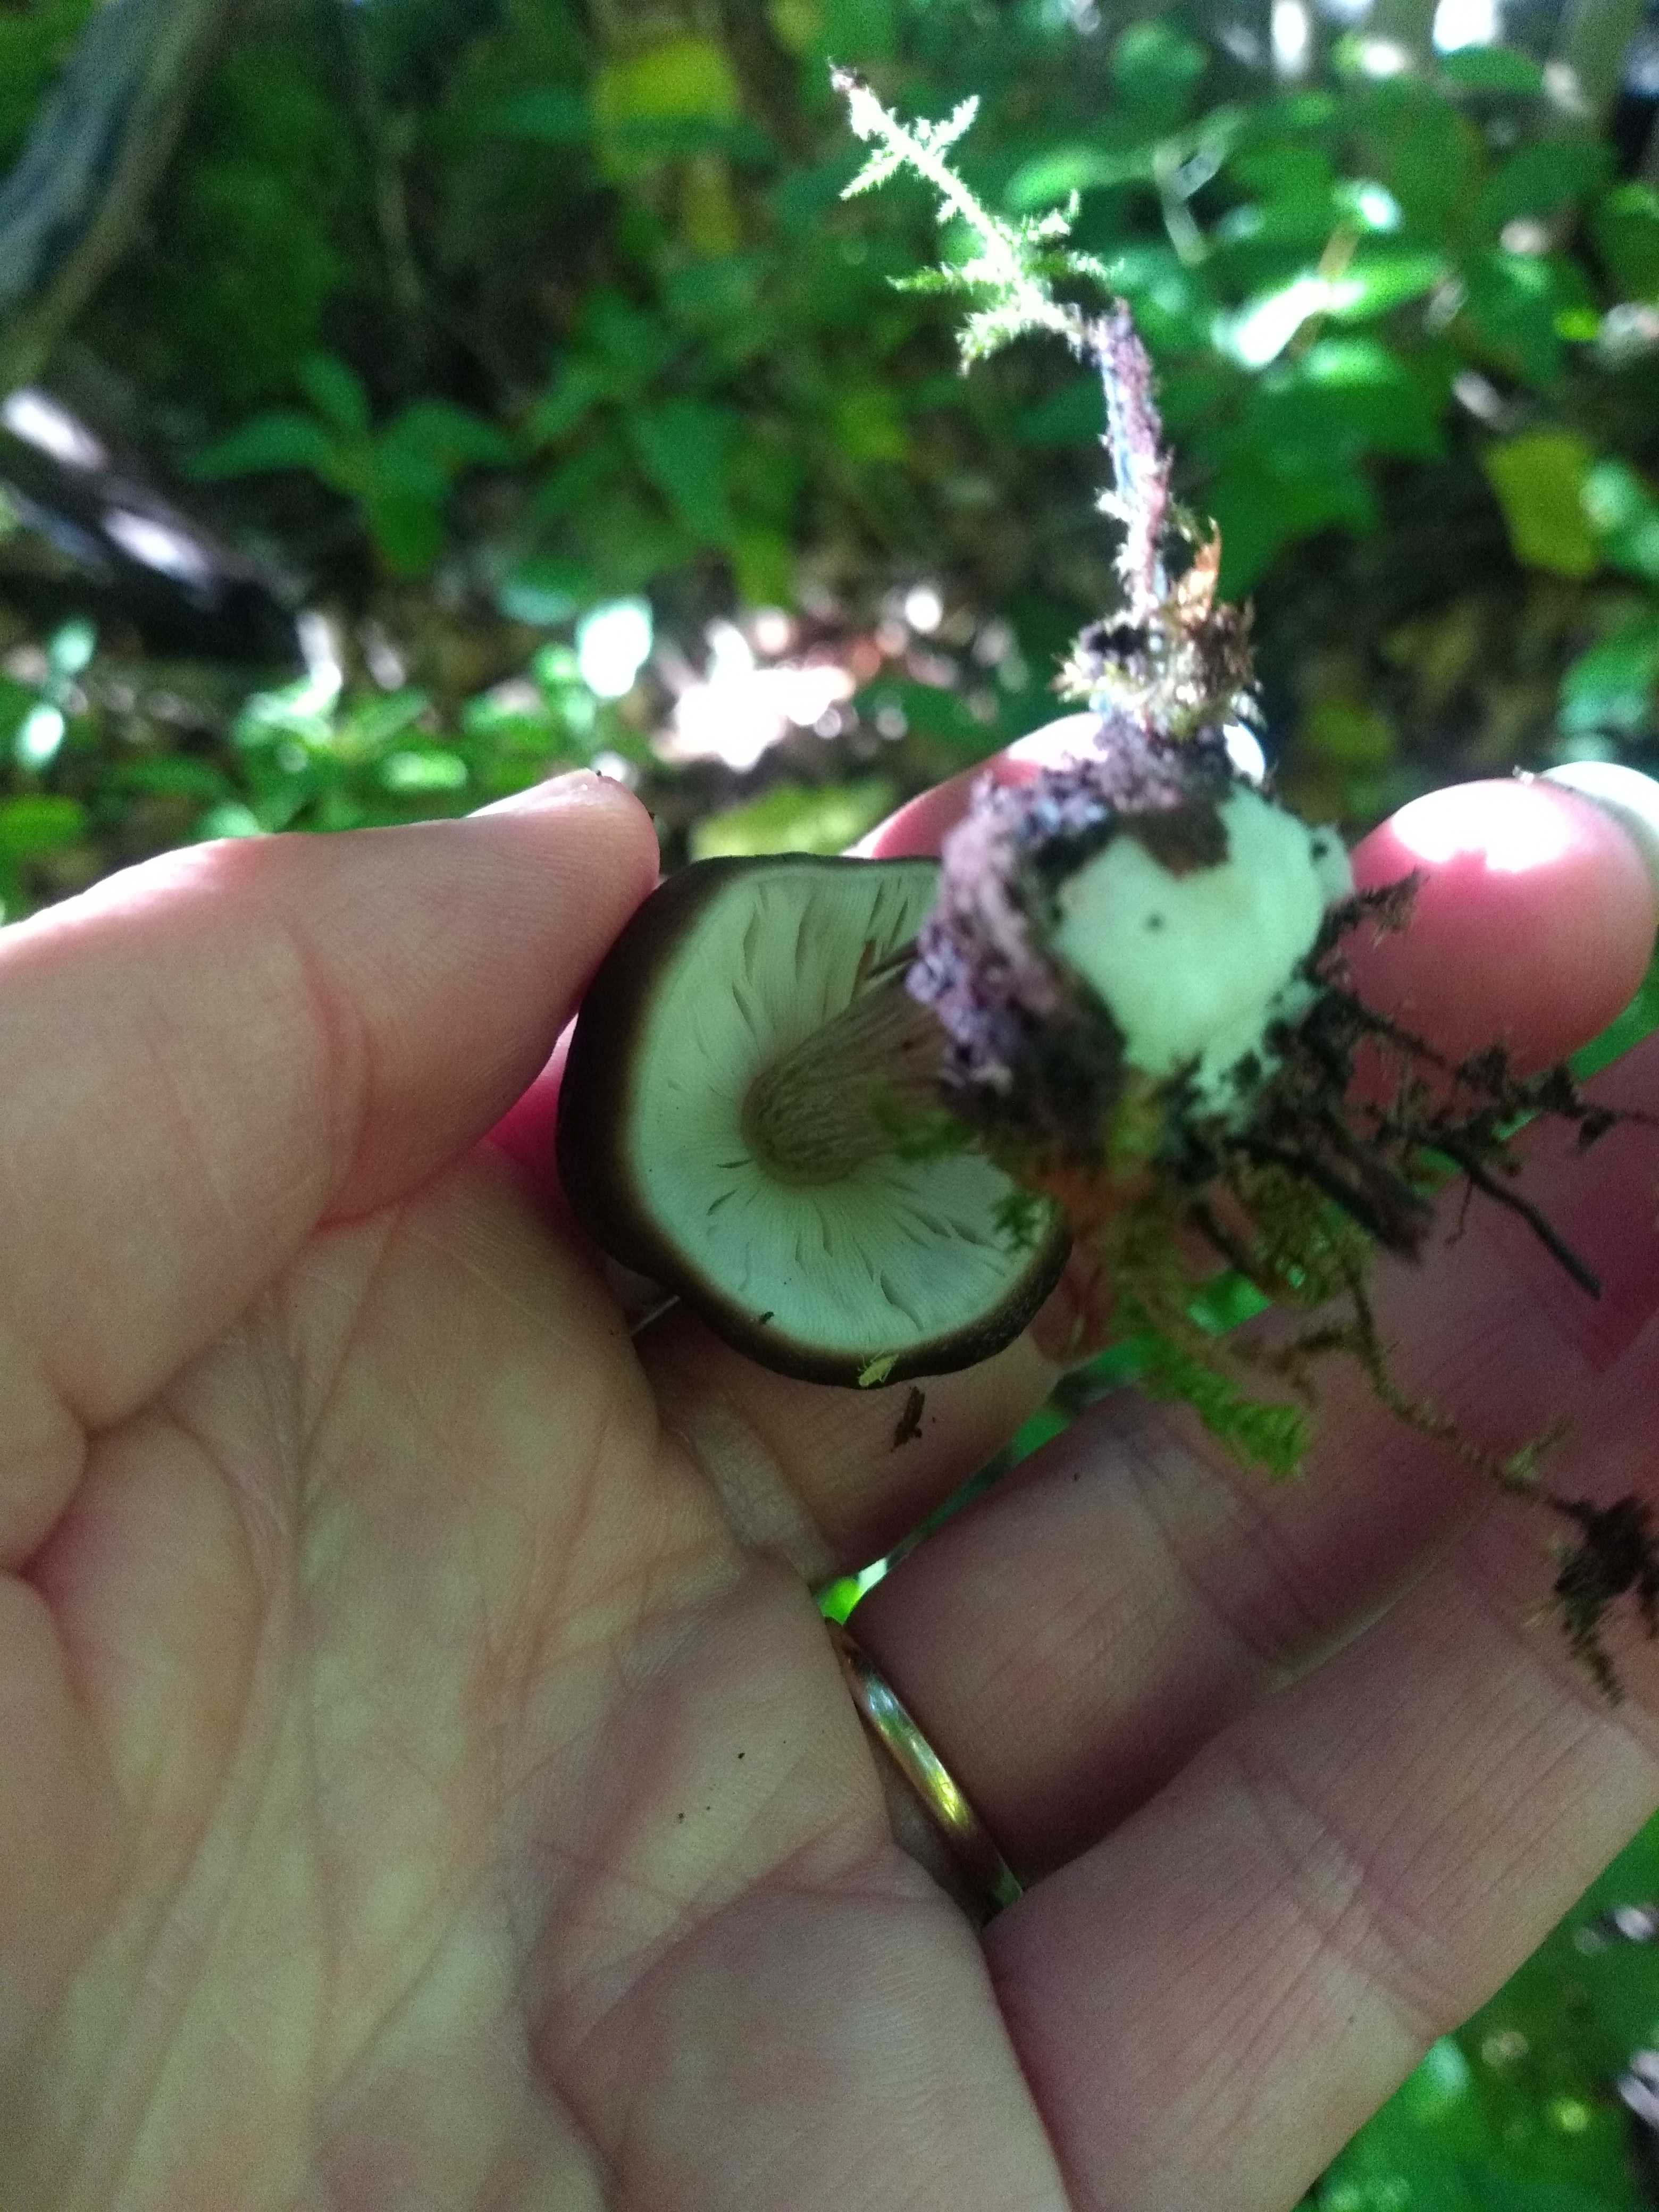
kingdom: Fungi
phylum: Basidiomycota
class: Agaricomycetes
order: Agaricales
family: Pluteaceae
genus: Pluteus
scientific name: Pluteus
